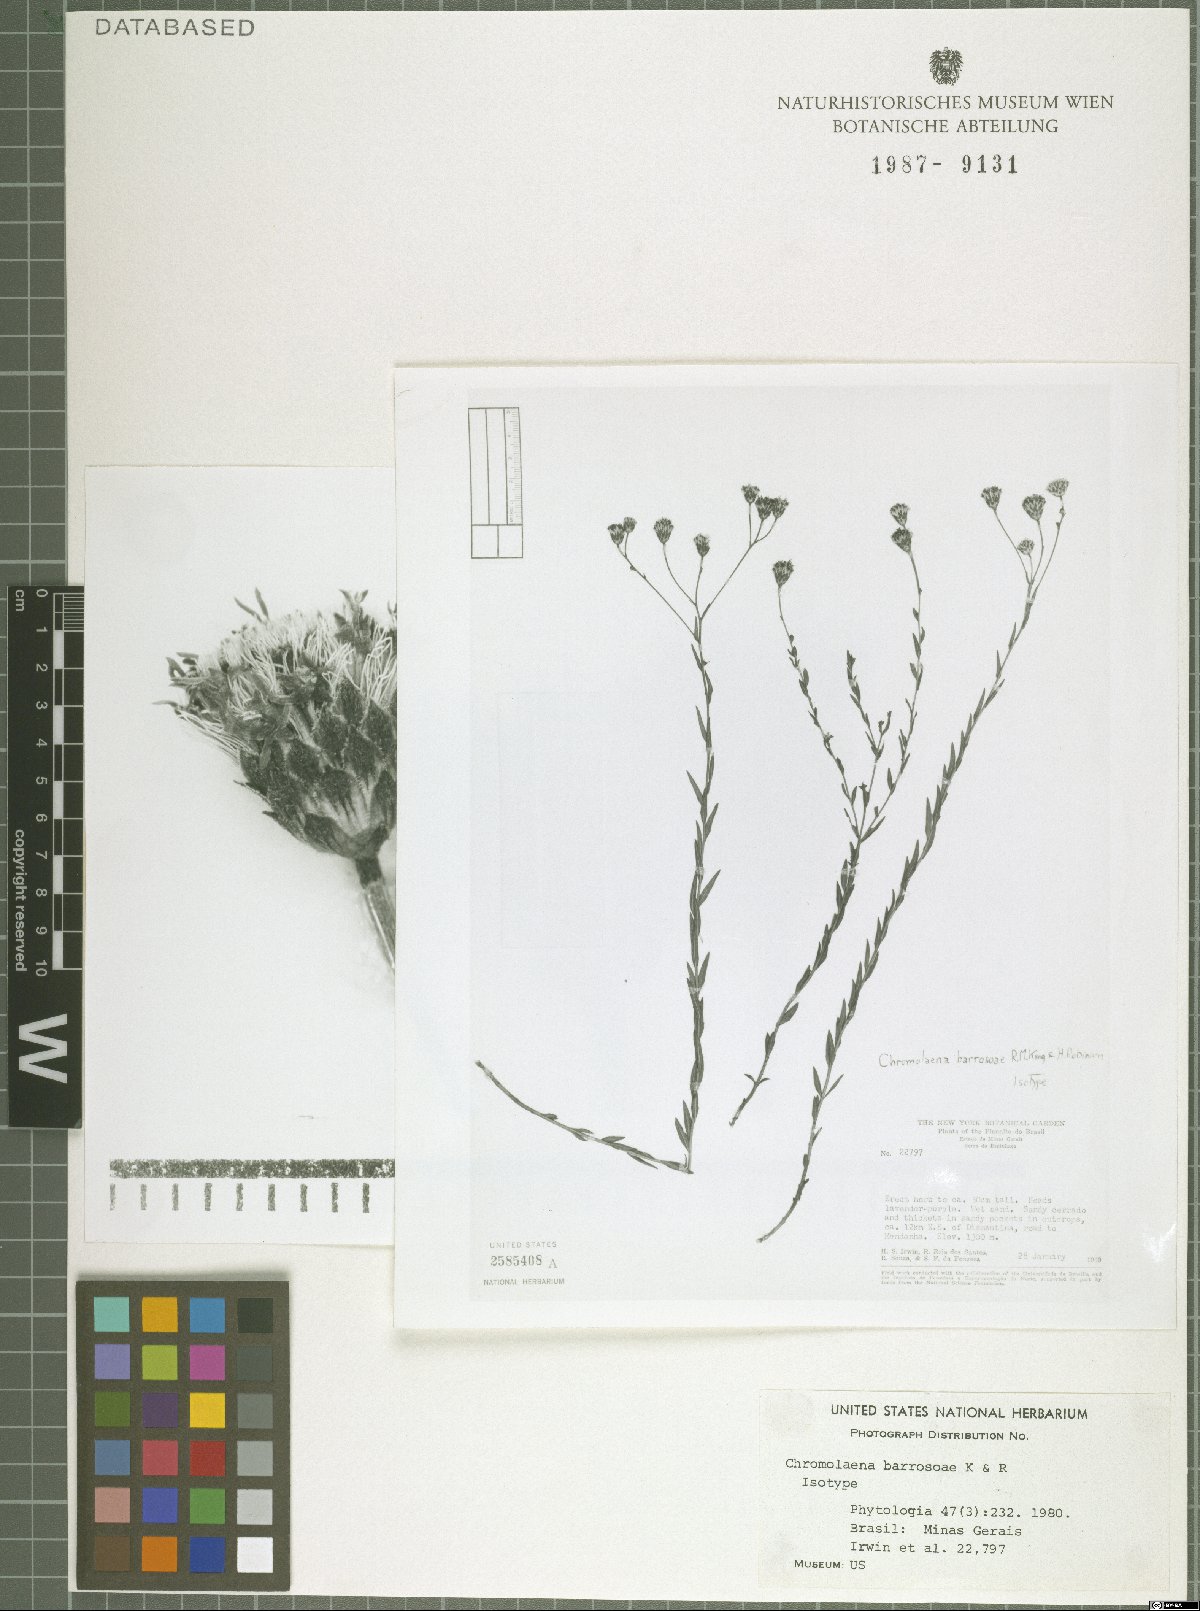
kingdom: Plantae
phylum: Tracheophyta
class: Magnoliopsida
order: Asterales
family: Asteraceae
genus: Chromolaena
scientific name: Chromolaena barrosoae
